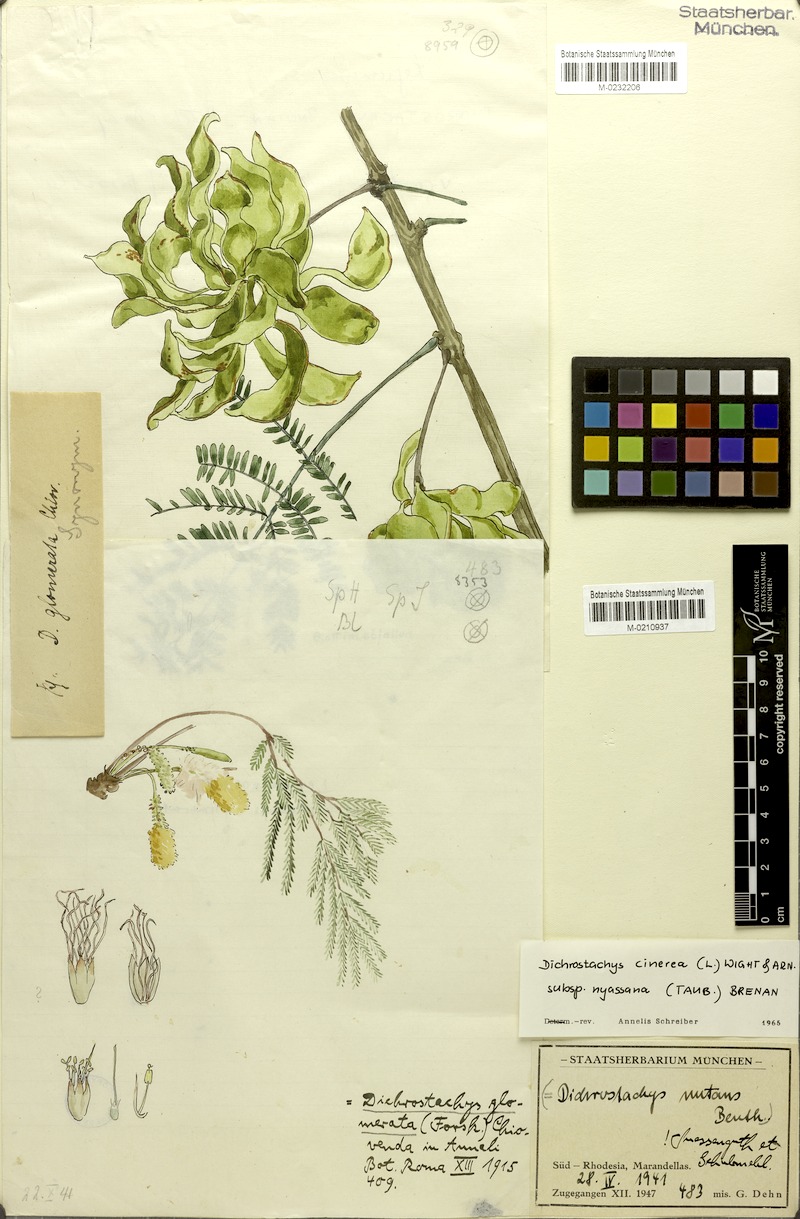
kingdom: Plantae
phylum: Tracheophyta
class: Magnoliopsida
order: Fabales
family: Fabaceae
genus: Dichrostachys
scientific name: Dichrostachys cinerea
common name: Sicklebush
